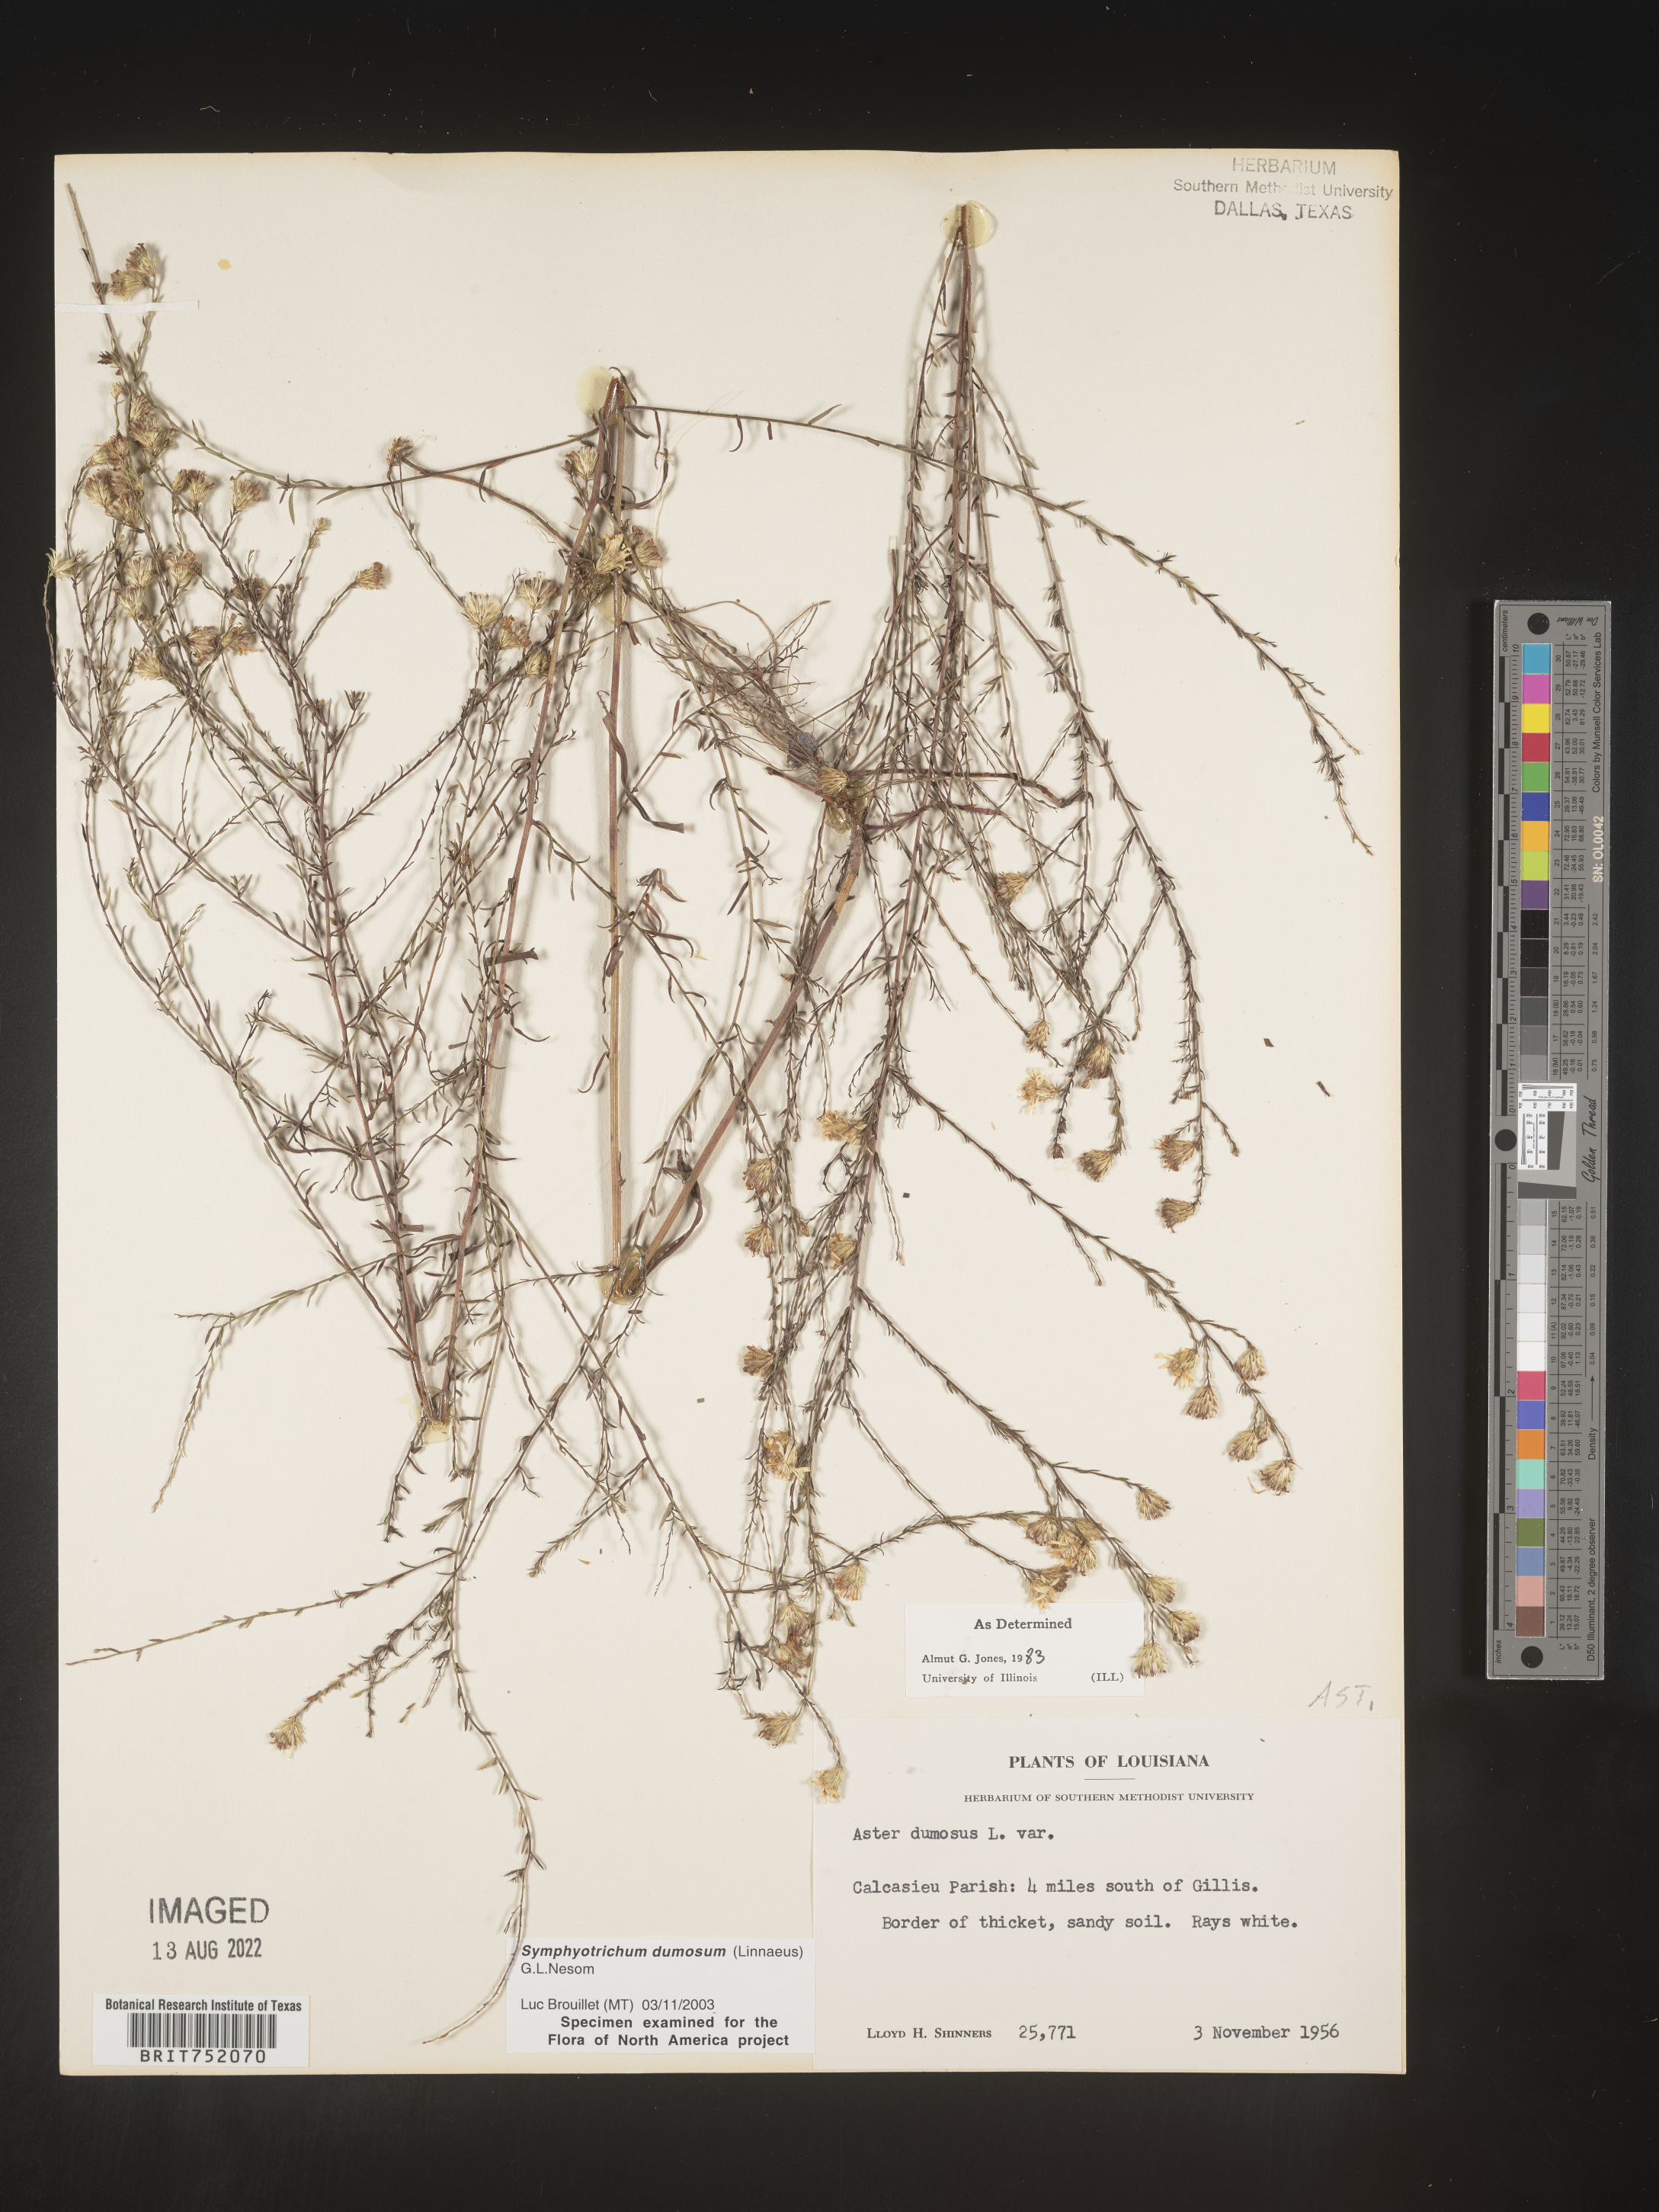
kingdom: Plantae
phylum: Tracheophyta
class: Magnoliopsida
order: Asterales
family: Asteraceae
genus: Symphyotrichum
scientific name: Symphyotrichum dumosum
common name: Bushy aster
